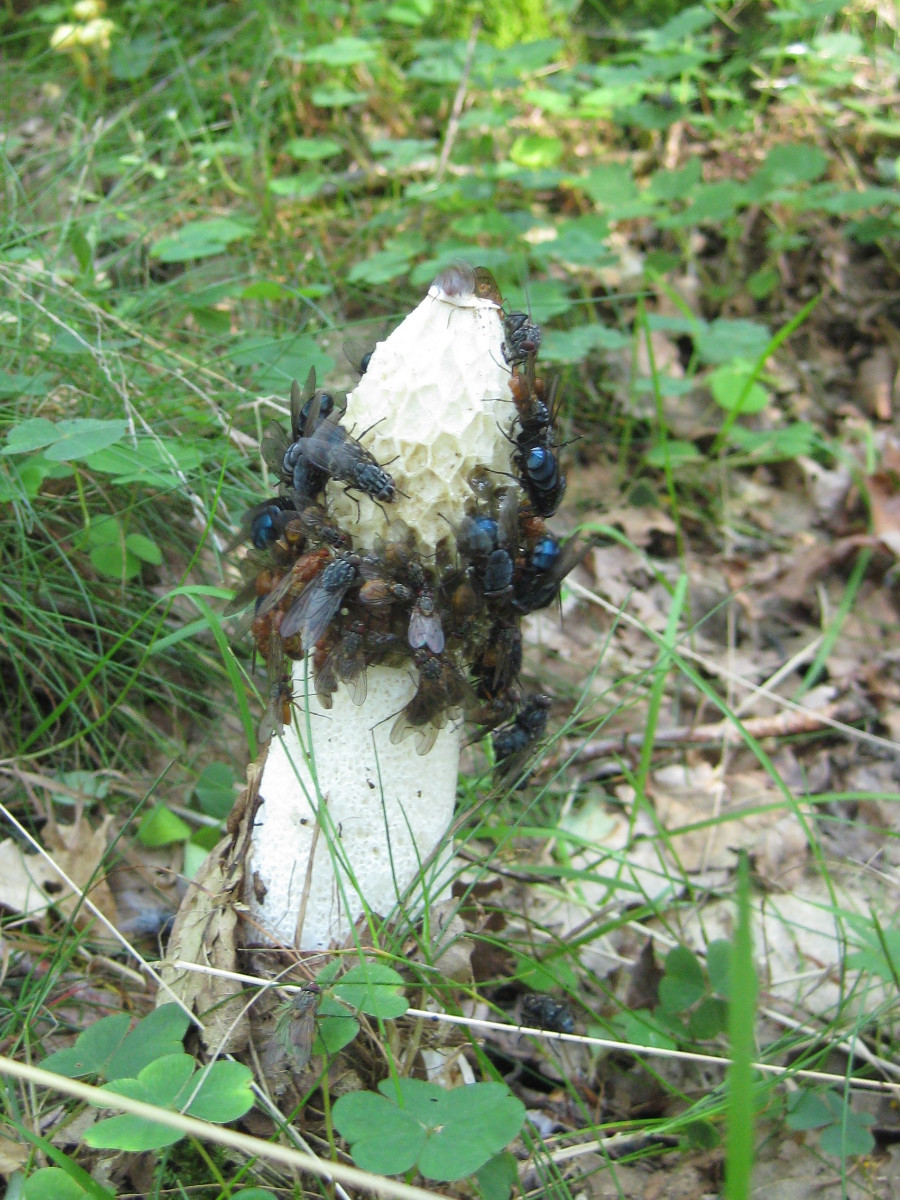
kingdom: Fungi
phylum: Basidiomycota
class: Agaricomycetes
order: Phallales
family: Phallaceae
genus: Phallus
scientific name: Phallus impudicus
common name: almindelig stinksvamp
